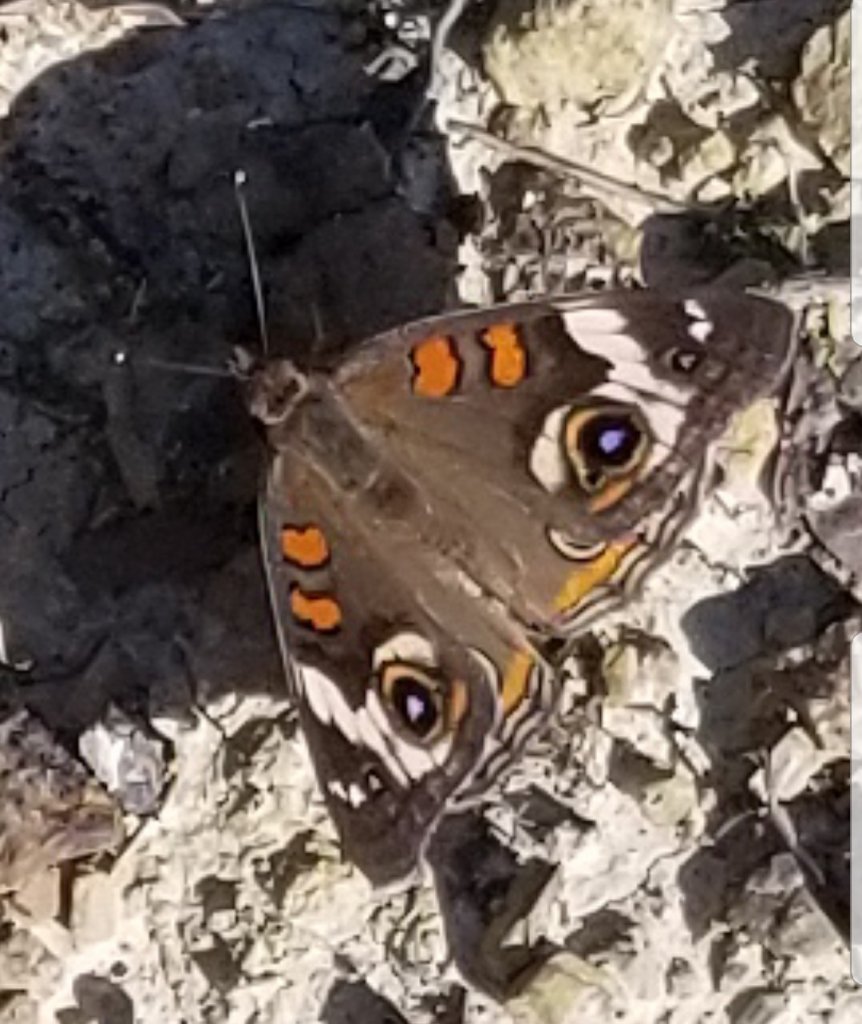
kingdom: Animalia
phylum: Arthropoda
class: Insecta
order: Lepidoptera
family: Nymphalidae
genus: Junonia
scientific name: Junonia coenia
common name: Common Buckeye
